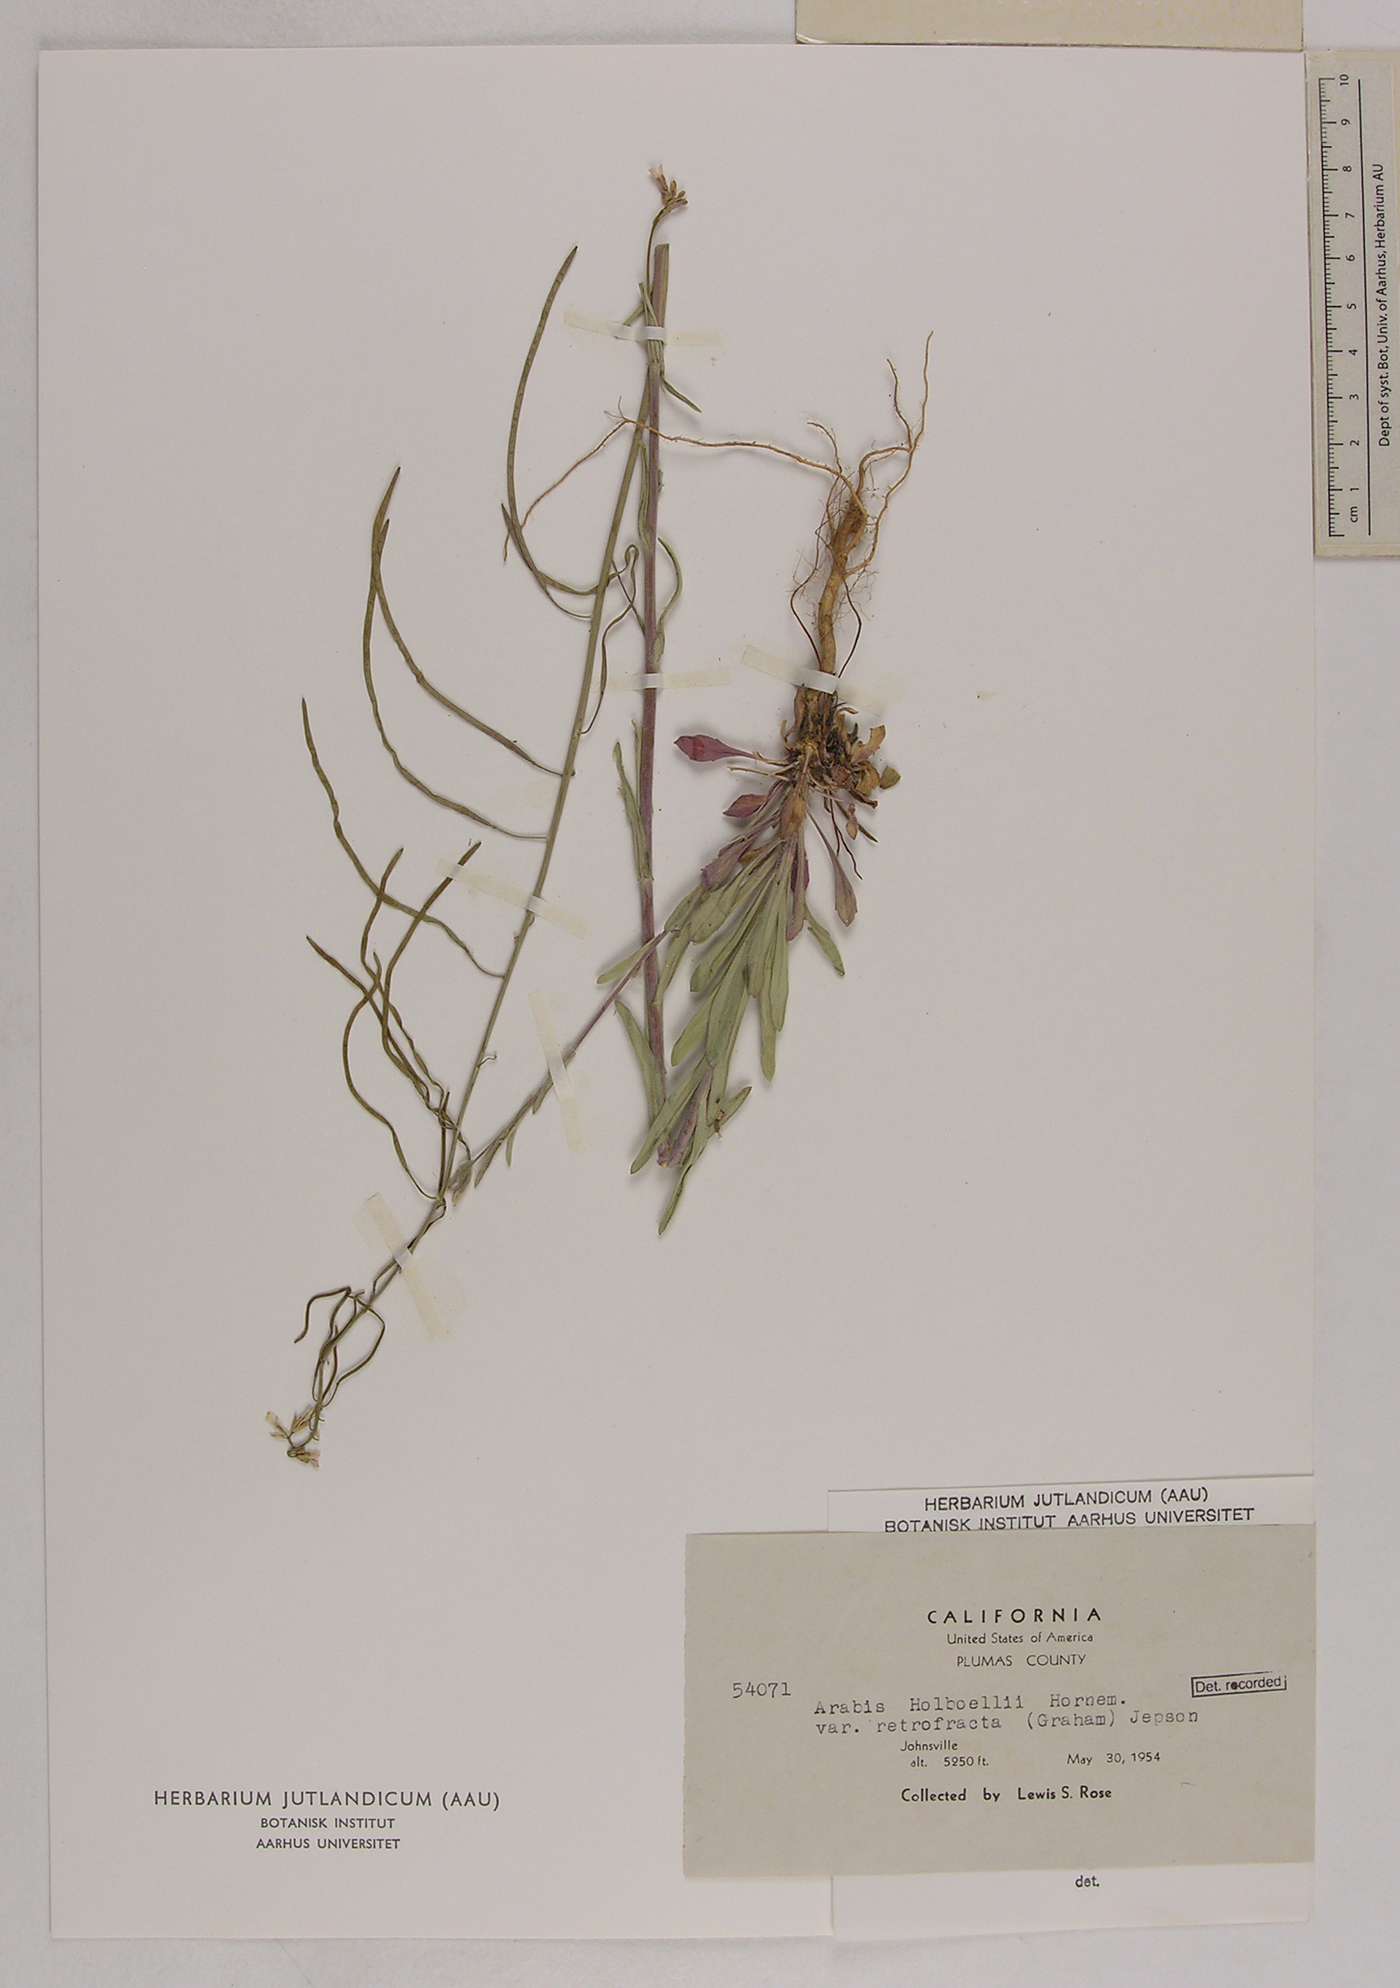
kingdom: Plantae
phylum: Tracheophyta
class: Magnoliopsida
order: Brassicales
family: Brassicaceae
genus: Boechera
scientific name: Boechera retrofracta
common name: Dangling suncress
